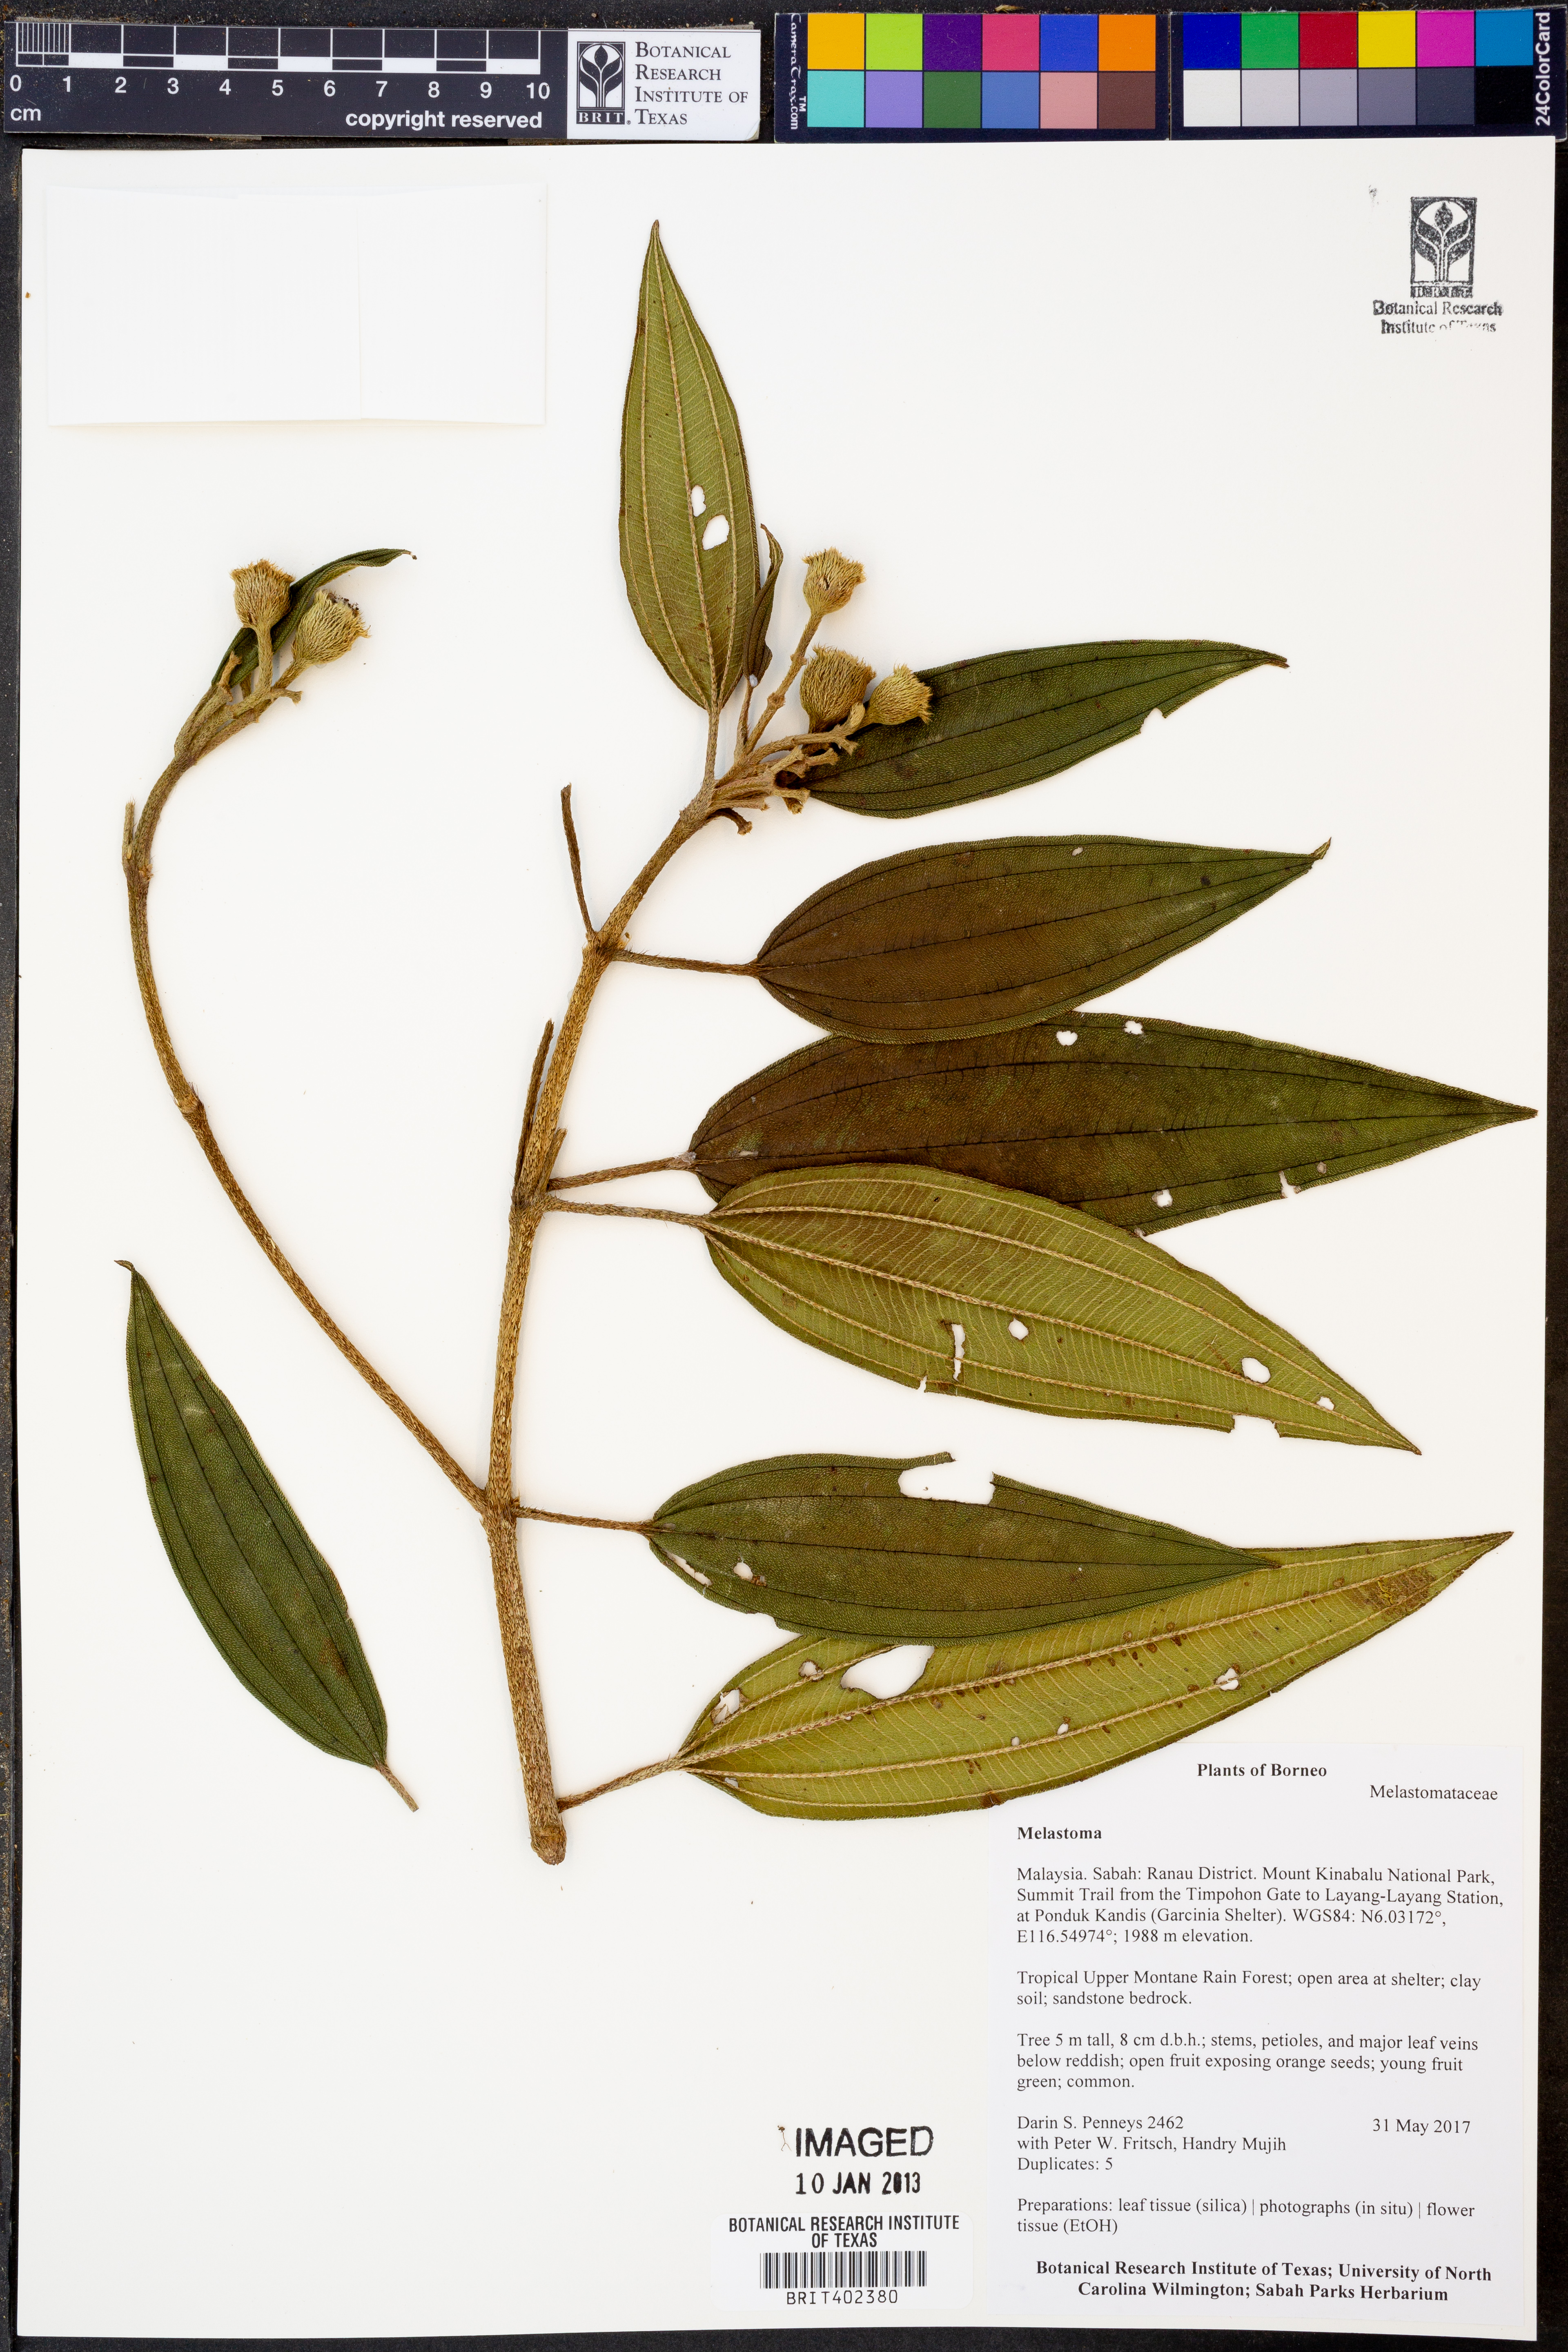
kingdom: Plantae
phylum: Tracheophyta
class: Magnoliopsida
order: Myrtales
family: Melastomataceae
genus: Melastoma
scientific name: Melastoma
